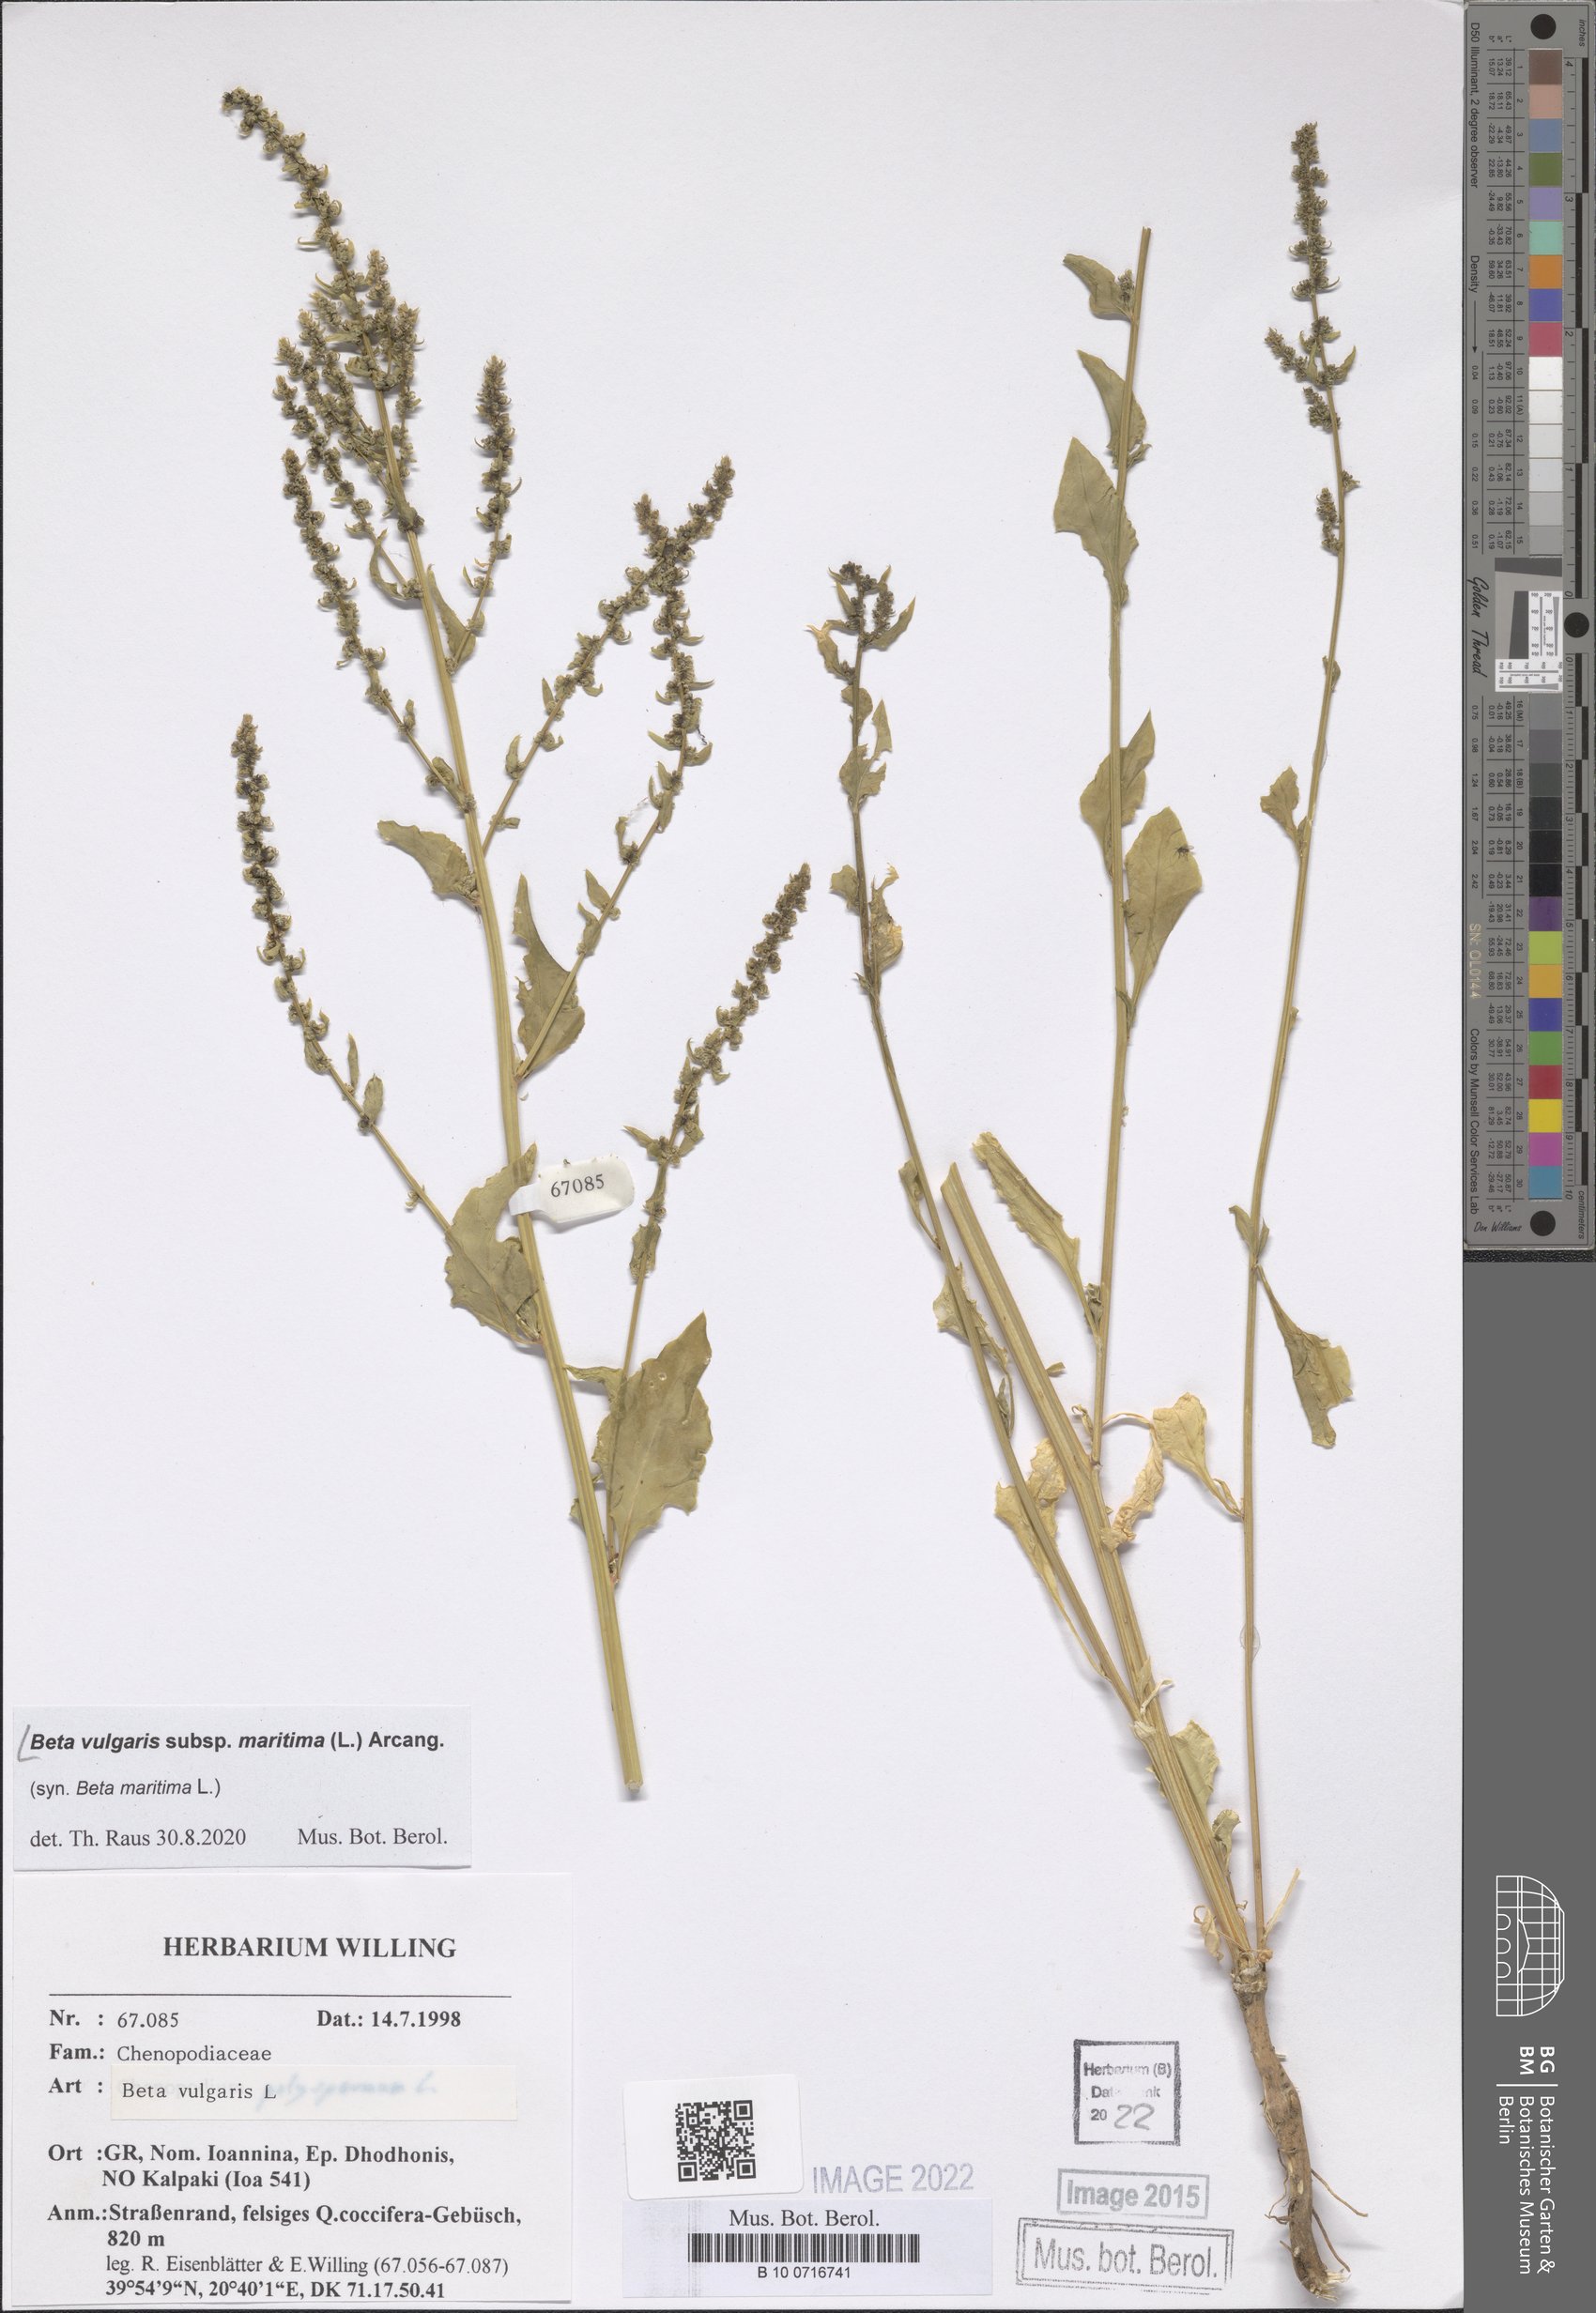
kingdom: Plantae
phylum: Tracheophyta
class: Magnoliopsida
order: Caryophyllales
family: Amaranthaceae
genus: Beta
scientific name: Beta maritima
